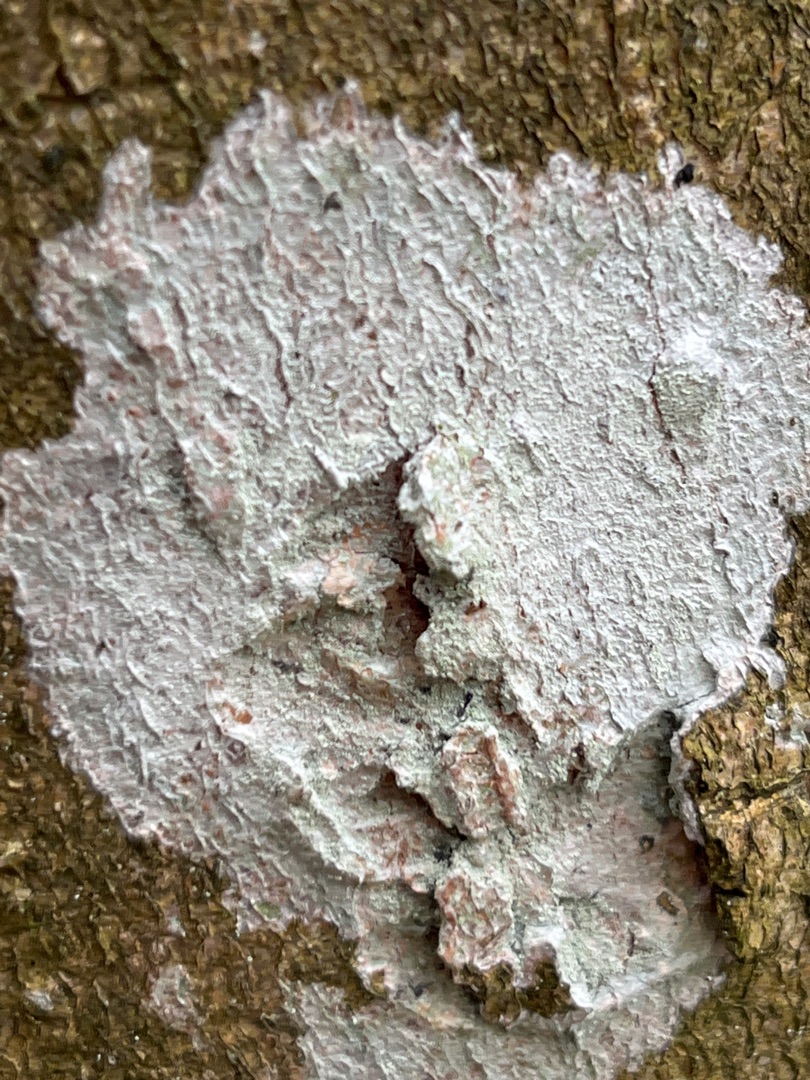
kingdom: Fungi
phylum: Ascomycota
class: Lecanoromycetes
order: Ostropales
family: Phlyctidaceae
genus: Phlyctis
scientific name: Phlyctis argena
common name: Almindelig sølvlav
